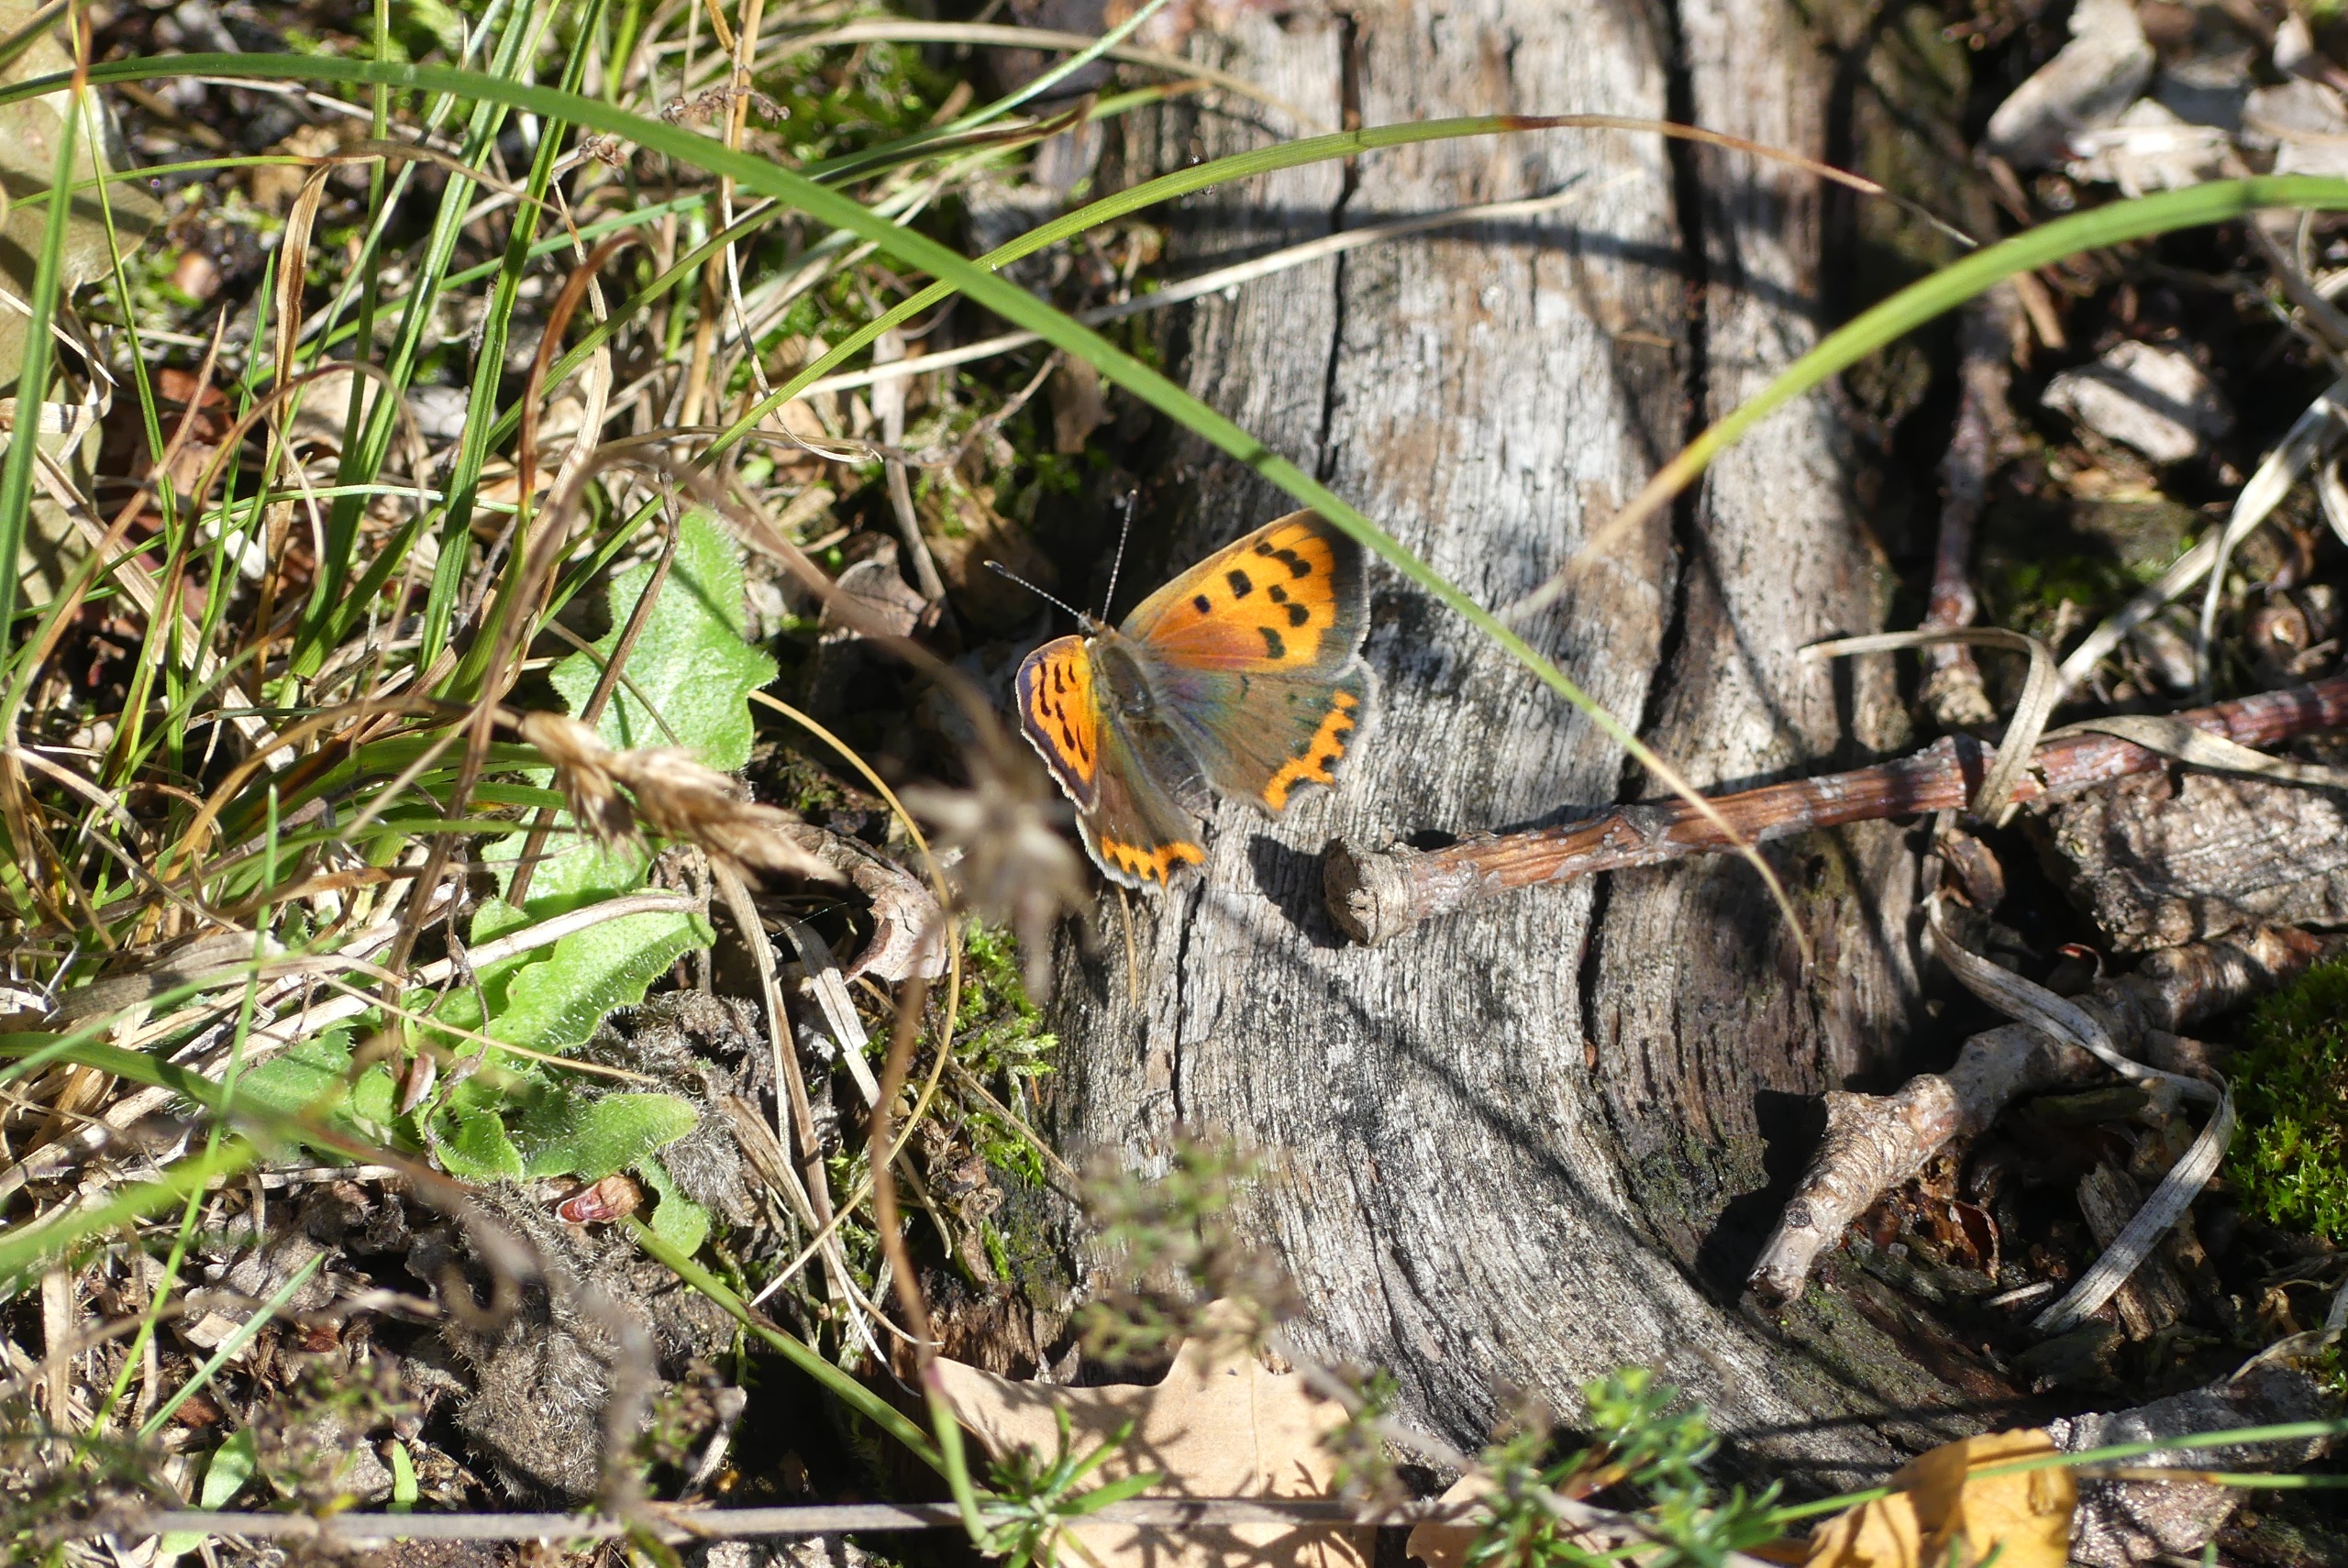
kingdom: Animalia
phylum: Arthropoda
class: Insecta
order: Lepidoptera
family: Lycaenidae
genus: Lycaena
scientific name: Lycaena phlaeas
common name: Lille ildfugl
